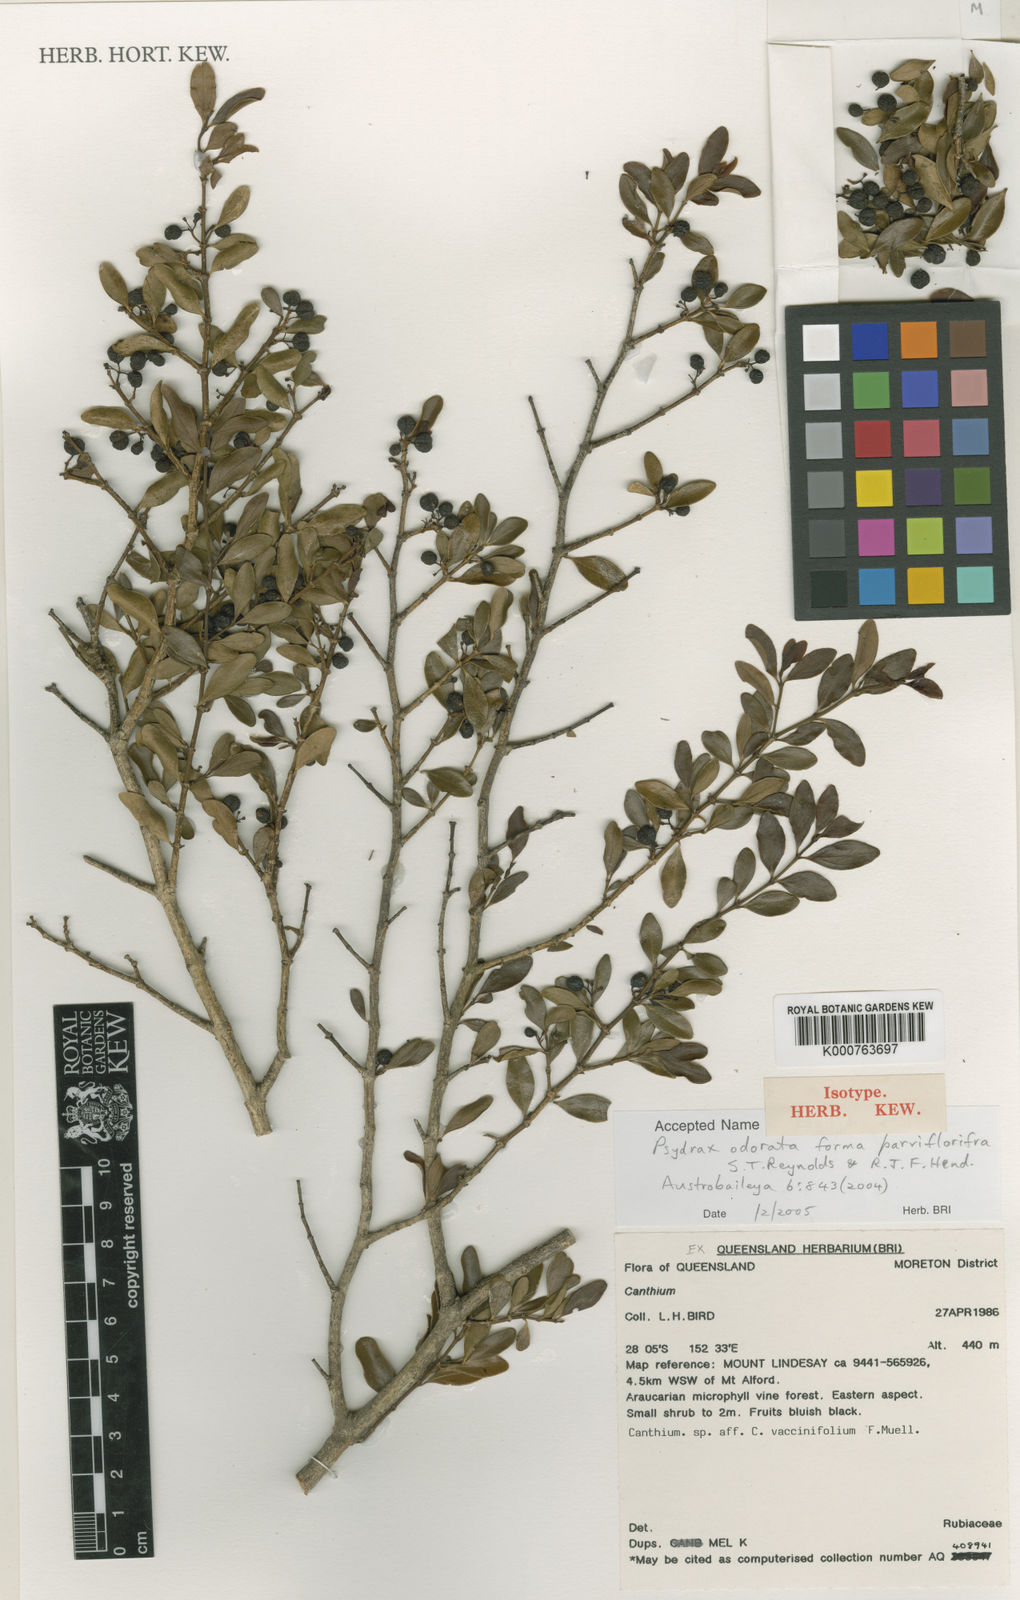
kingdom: Plantae
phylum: Tracheophyta
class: Magnoliopsida
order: Gentianales
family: Rubiaceae
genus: Psydrax
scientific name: Psydrax odoratus
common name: Alahe'e
